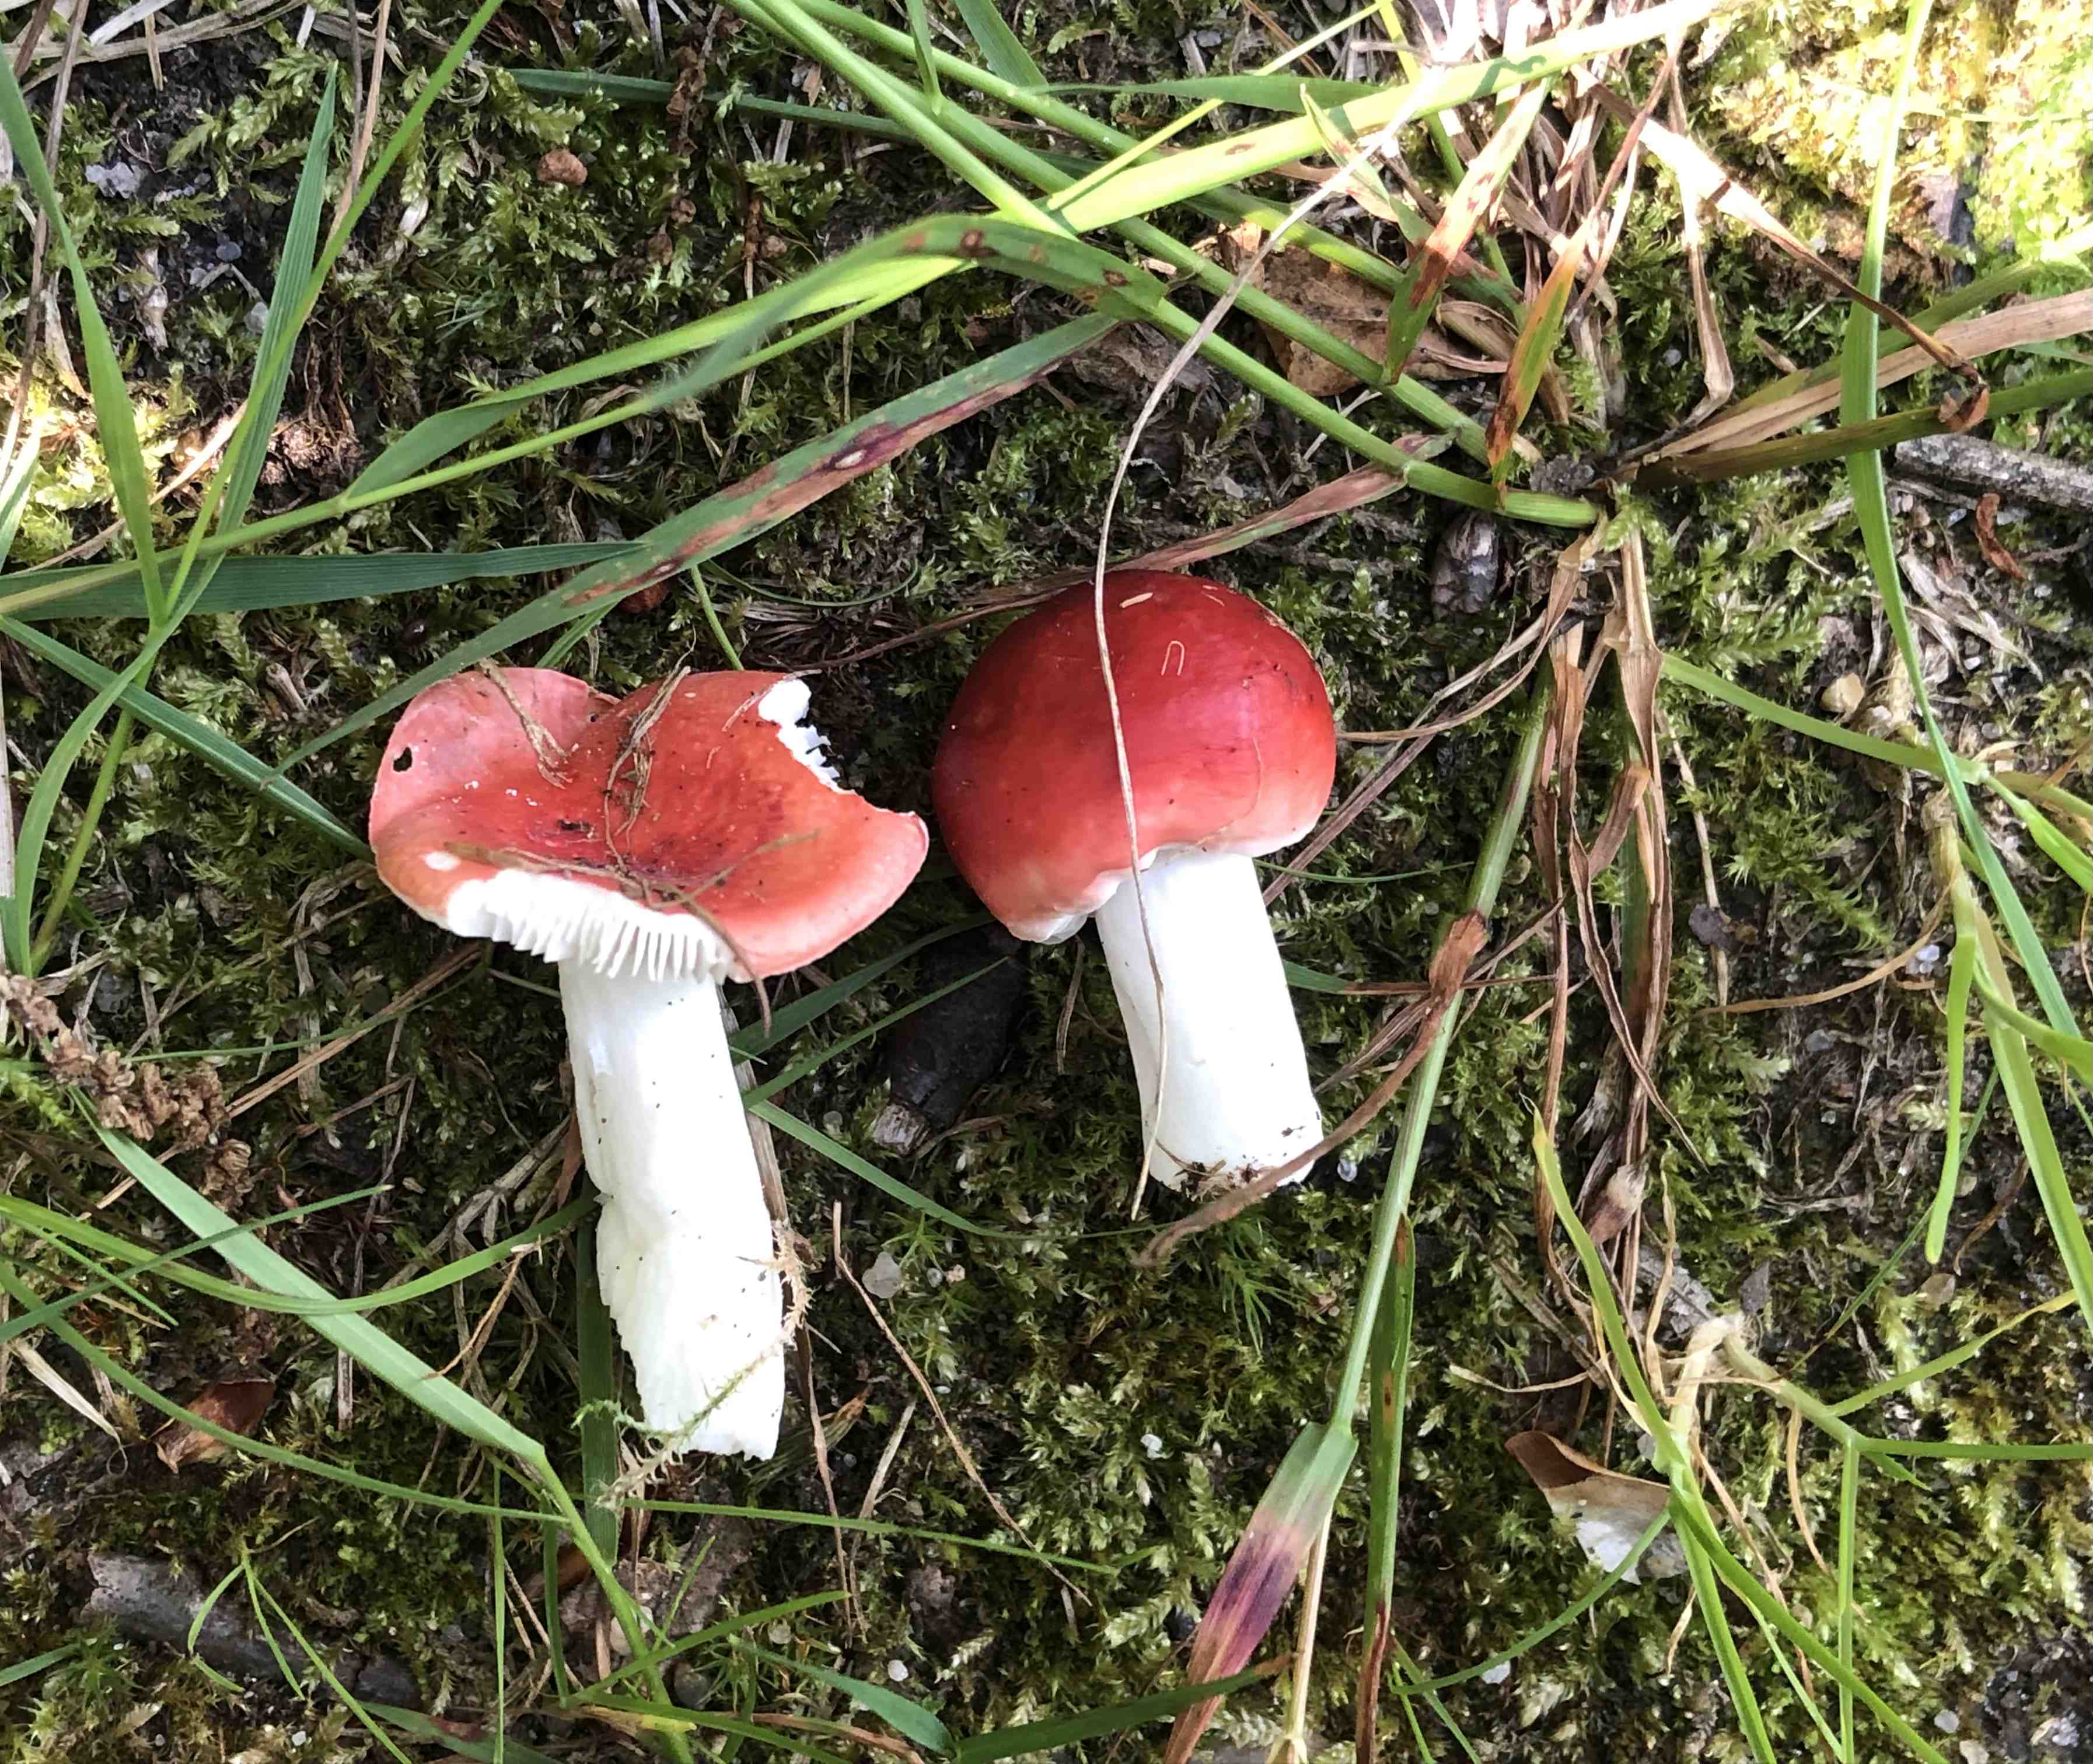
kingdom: Fungi
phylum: Basidiomycota
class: Agaricomycetes
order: Russulales
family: Russulaceae
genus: Russula
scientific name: Russula nobilis
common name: lille gift-skørhat
